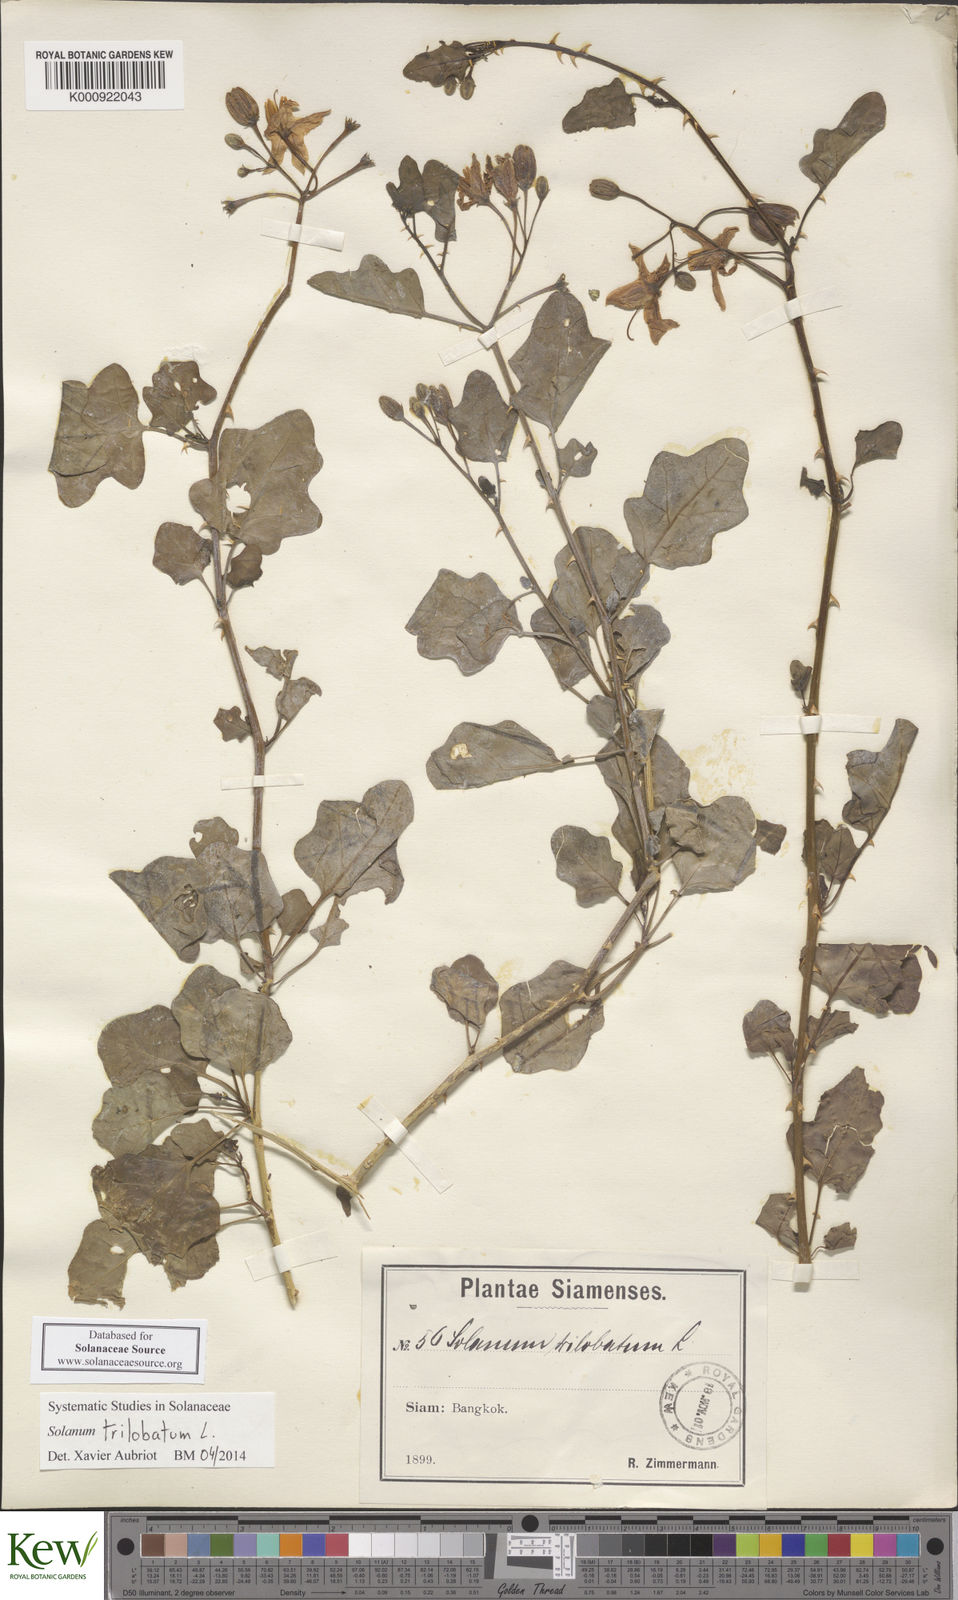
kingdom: Plantae
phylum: Tracheophyta
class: Magnoliopsida
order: Solanales
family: Solanaceae
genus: Solanum
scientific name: Solanum trilobatum
